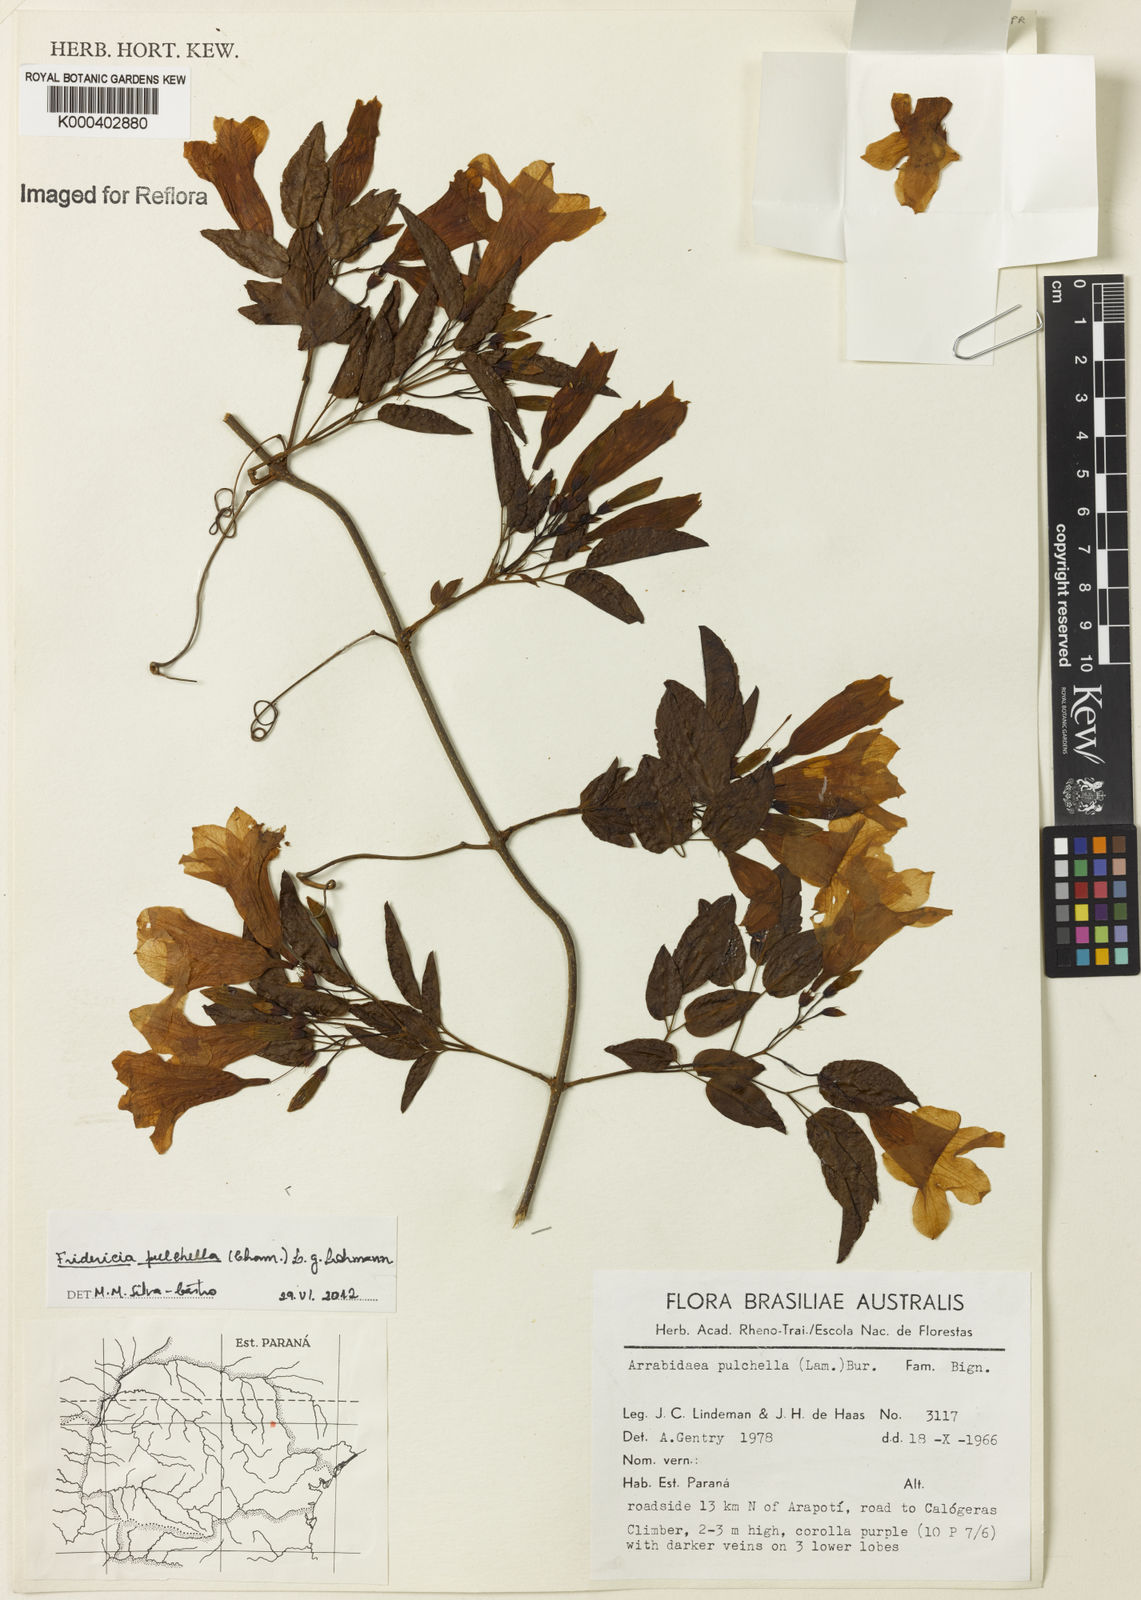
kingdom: Plantae
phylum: Tracheophyta
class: Magnoliopsida
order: Lamiales
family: Bignoniaceae
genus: Fridericia
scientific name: Fridericia
